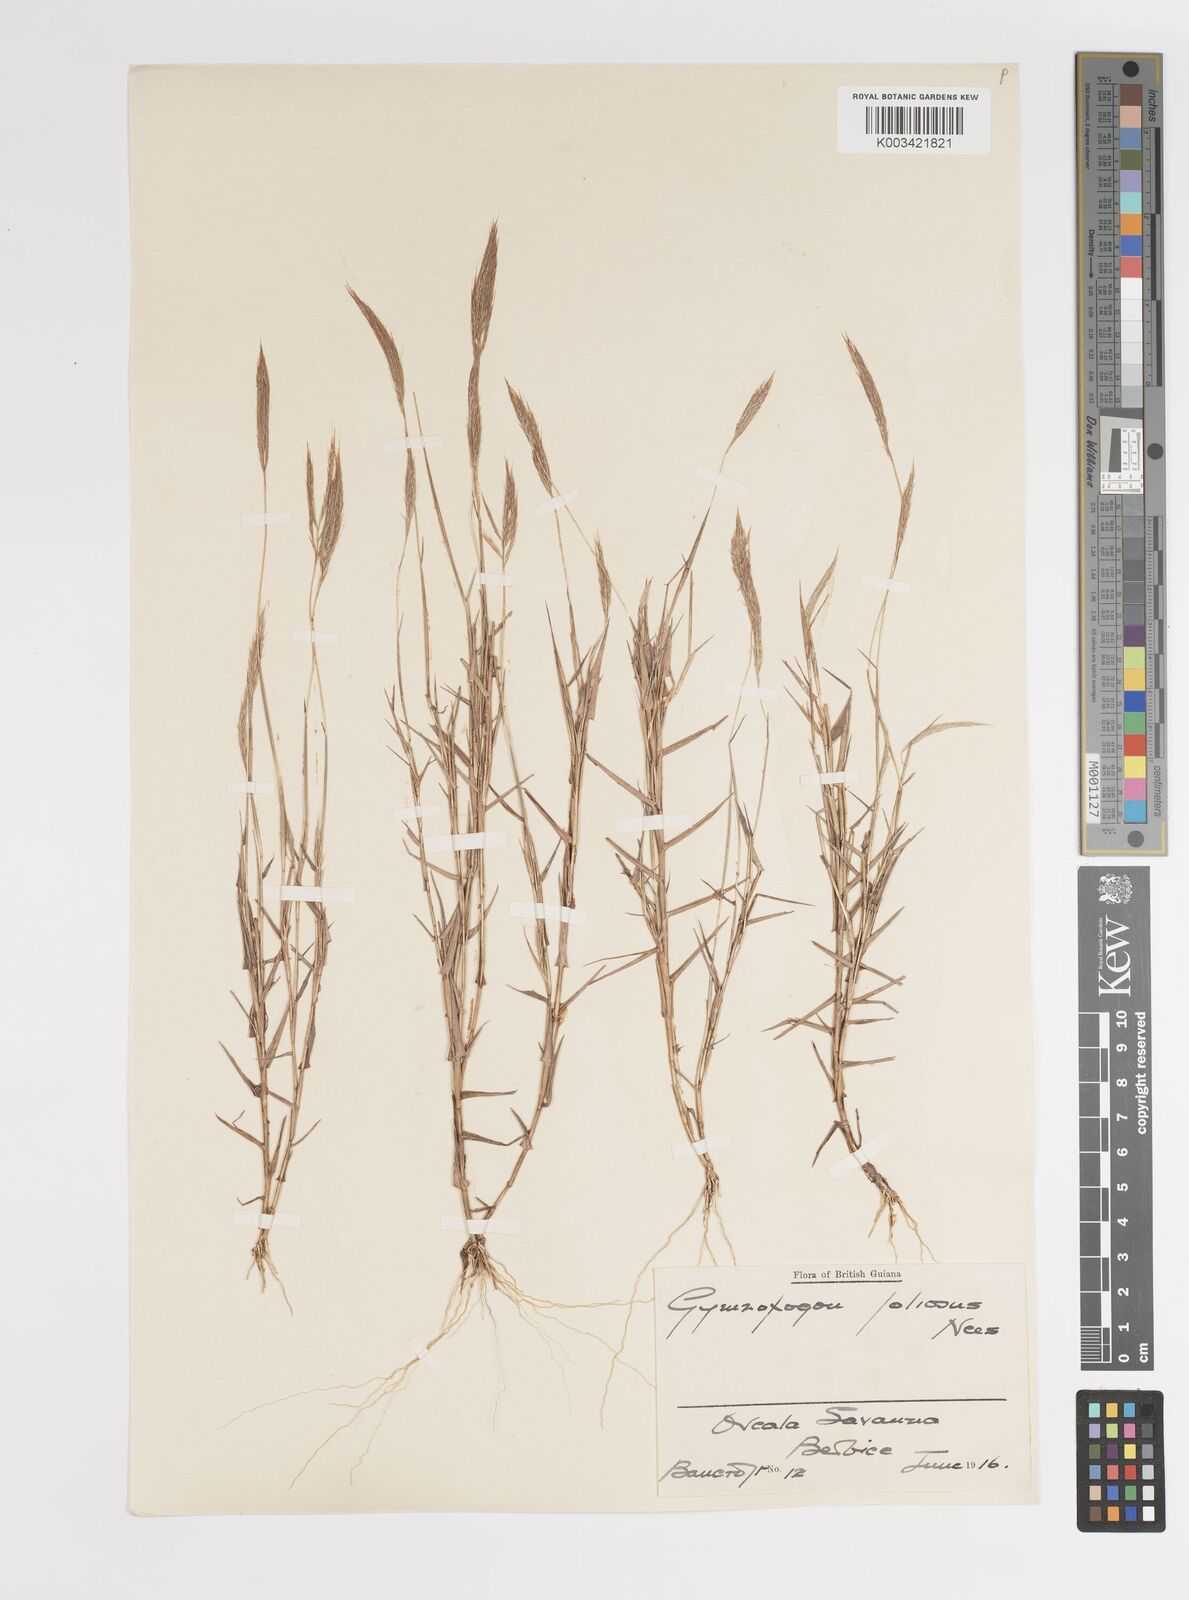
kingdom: Plantae
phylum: Tracheophyta
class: Liliopsida
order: Poales
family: Poaceae
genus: Gymnopogon
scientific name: Gymnopogon foliosus
